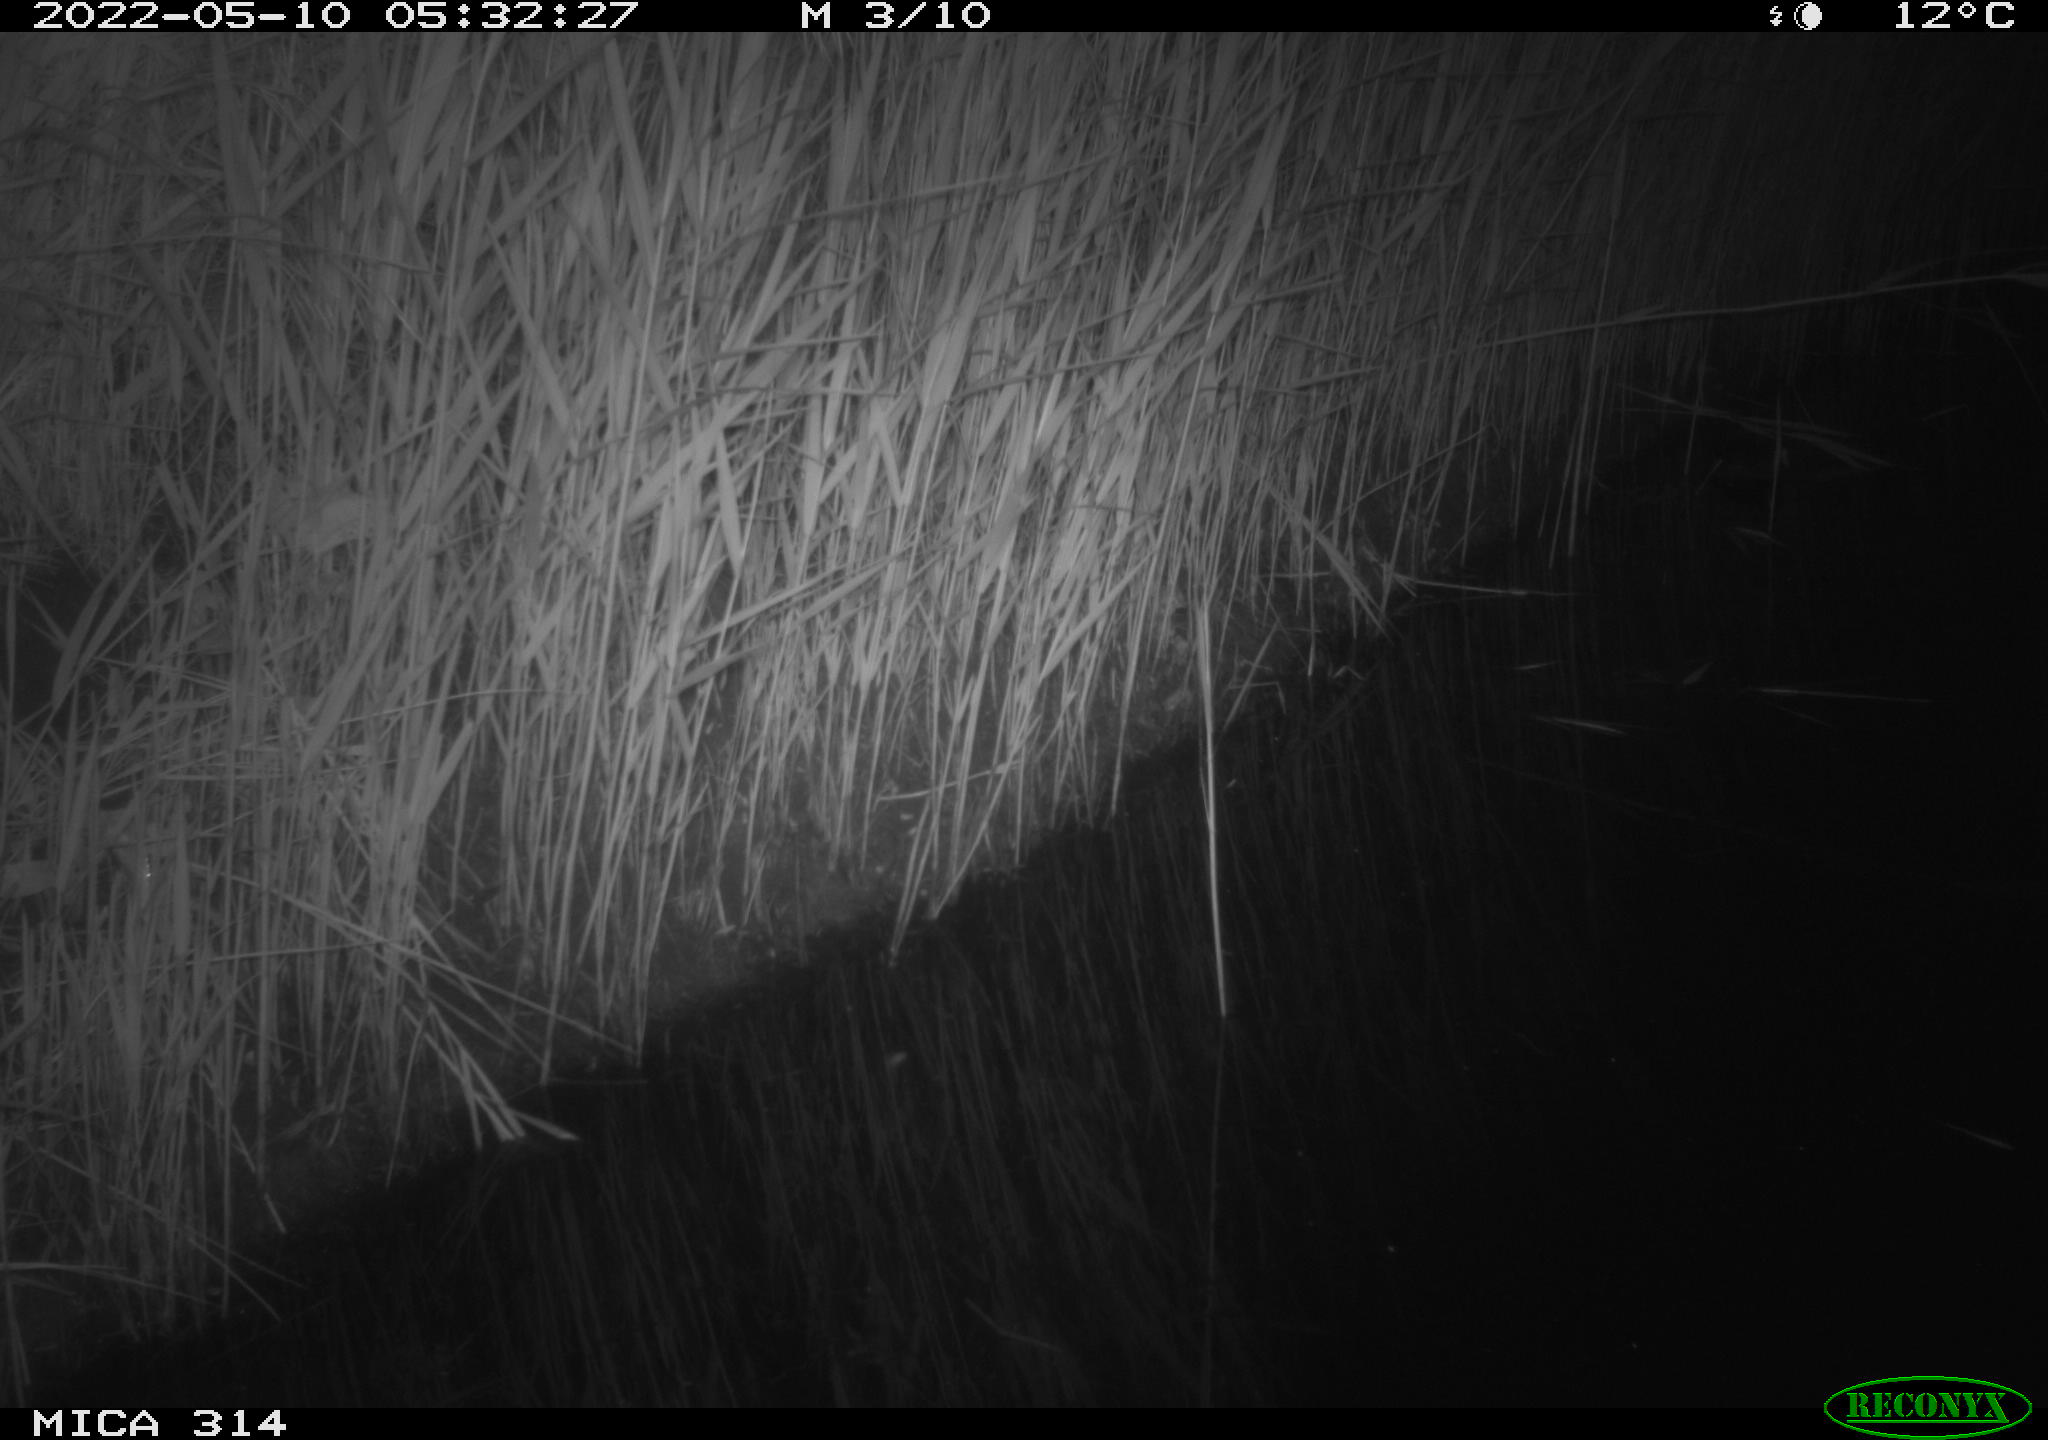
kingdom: Animalia
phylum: Chordata
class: Aves
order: Gruiformes
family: Rallidae
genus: Fulica
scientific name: Fulica atra
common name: Eurasian coot
